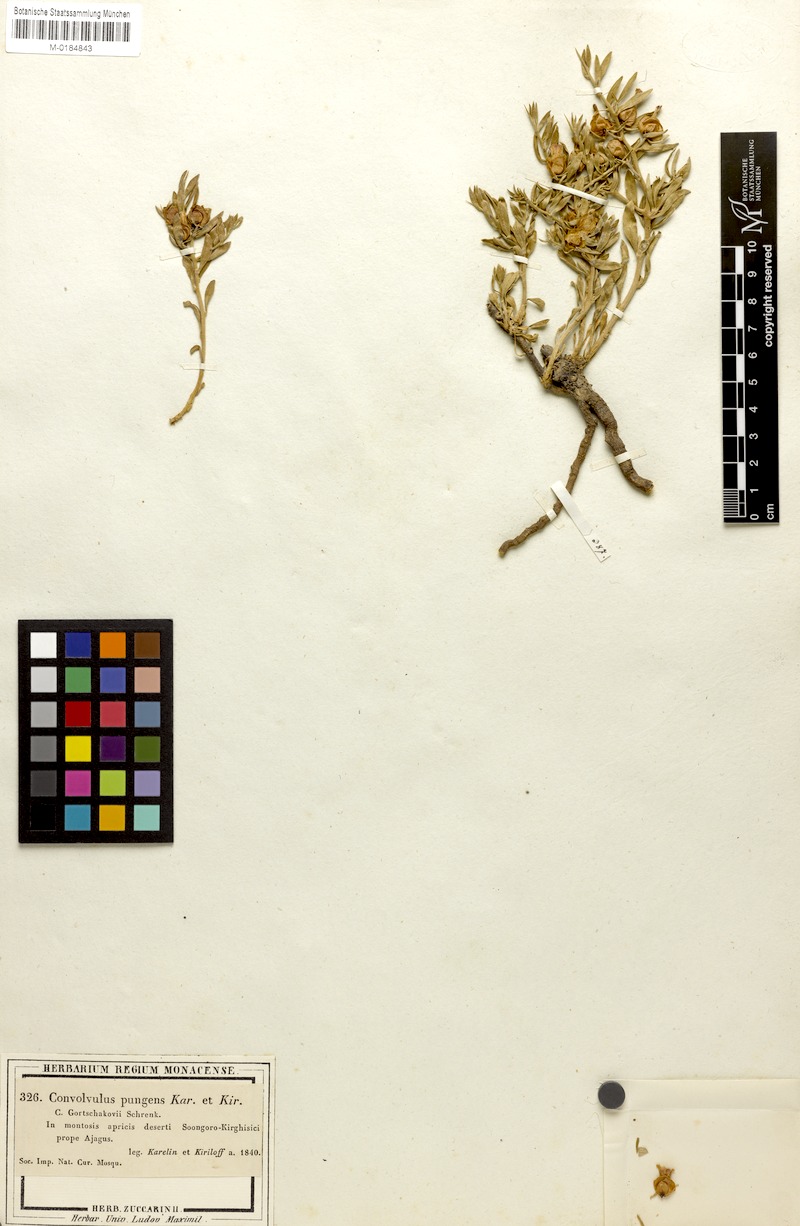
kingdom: Plantae
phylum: Tracheophyta
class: Magnoliopsida
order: Solanales
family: Convolvulaceae
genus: Convolvulus
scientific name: Convolvulus gortschakovii
